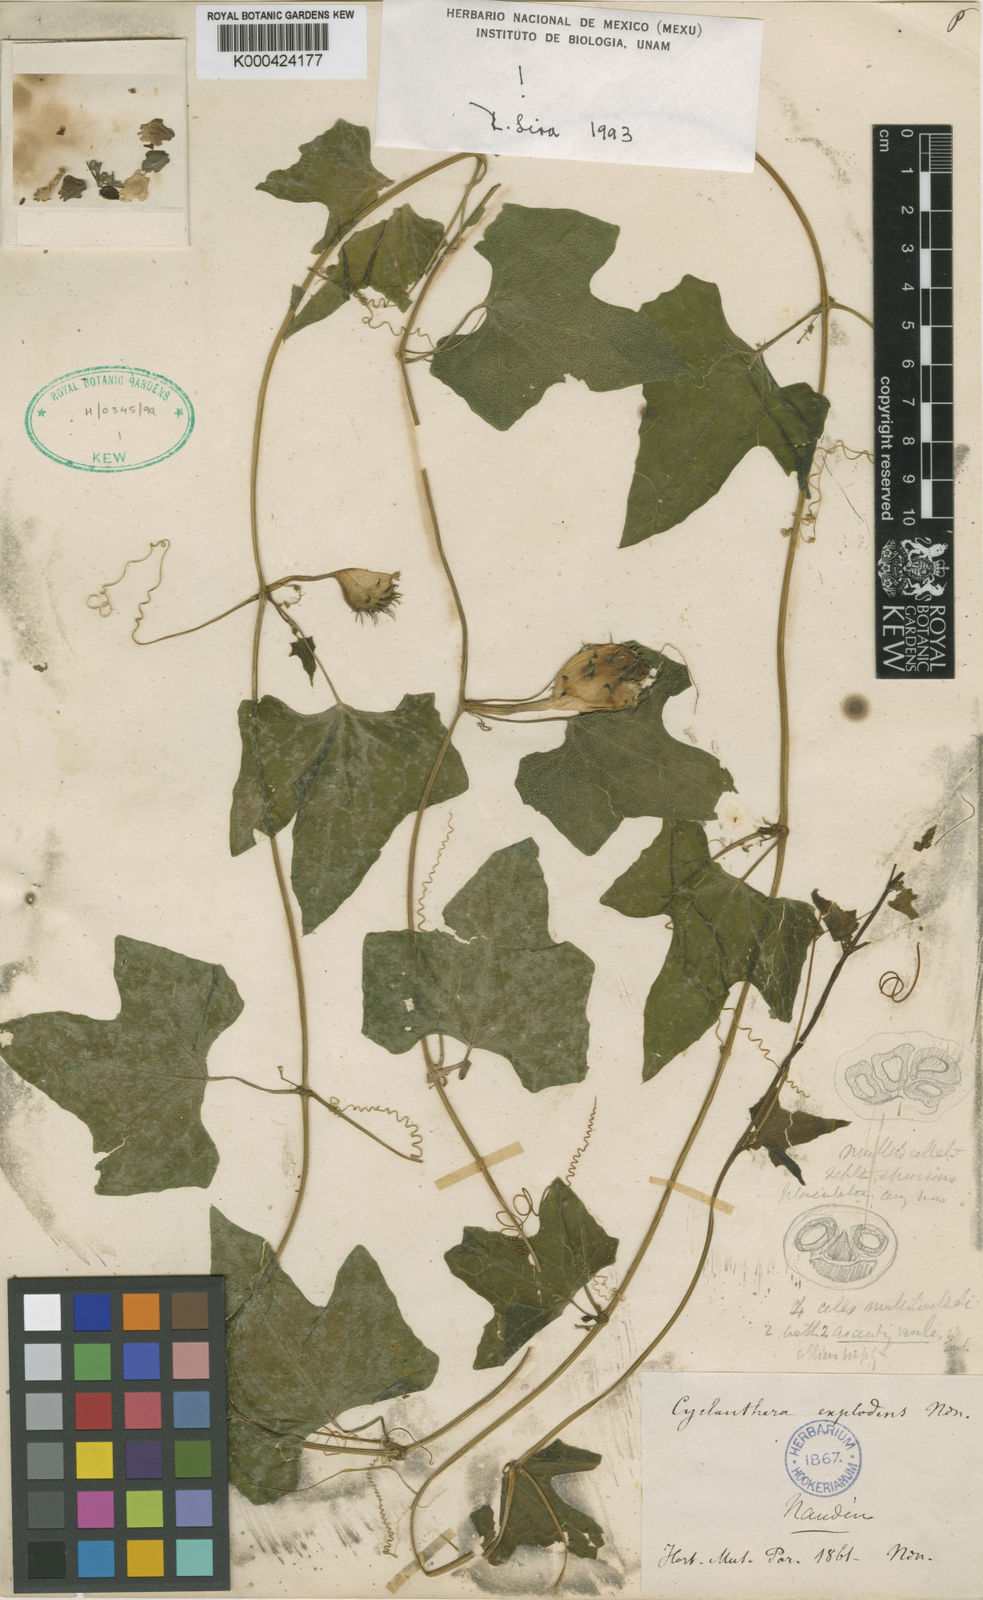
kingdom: Plantae
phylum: Tracheophyta
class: Magnoliopsida
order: Cucurbitales
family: Cucurbitaceae
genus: Cyclanthera
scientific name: Cyclanthera brachystachya
